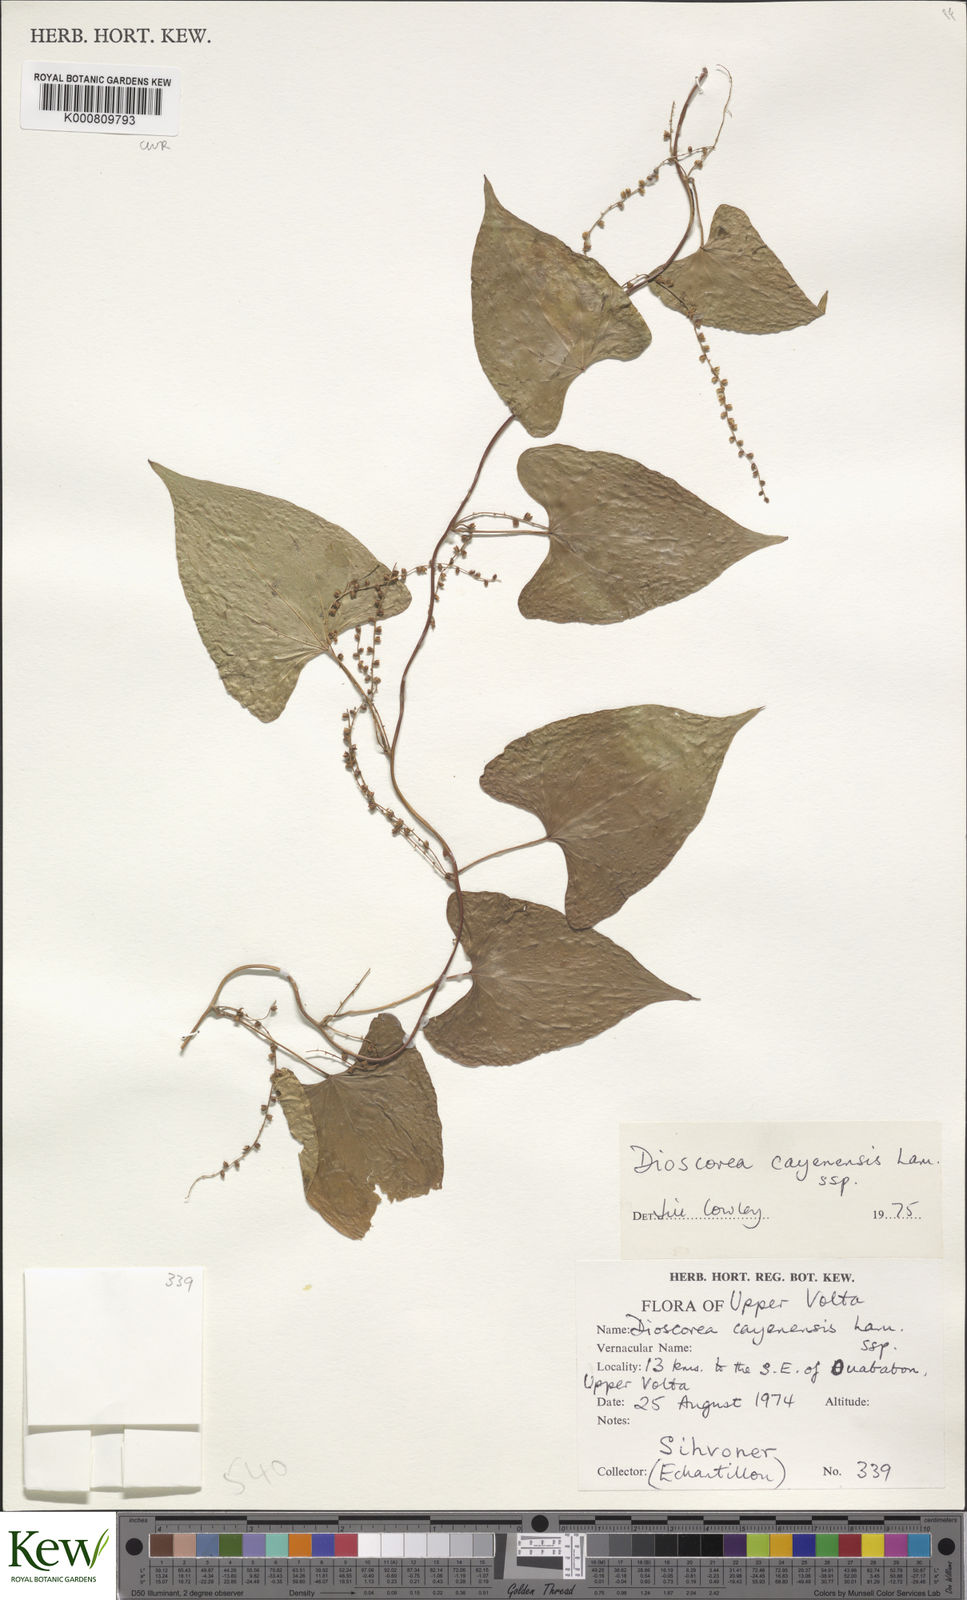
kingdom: Plantae
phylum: Tracheophyta
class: Liliopsida
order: Dioscoreales
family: Dioscoreaceae
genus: Dioscorea
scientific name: Dioscorea cayenensis
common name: Attoto yam
